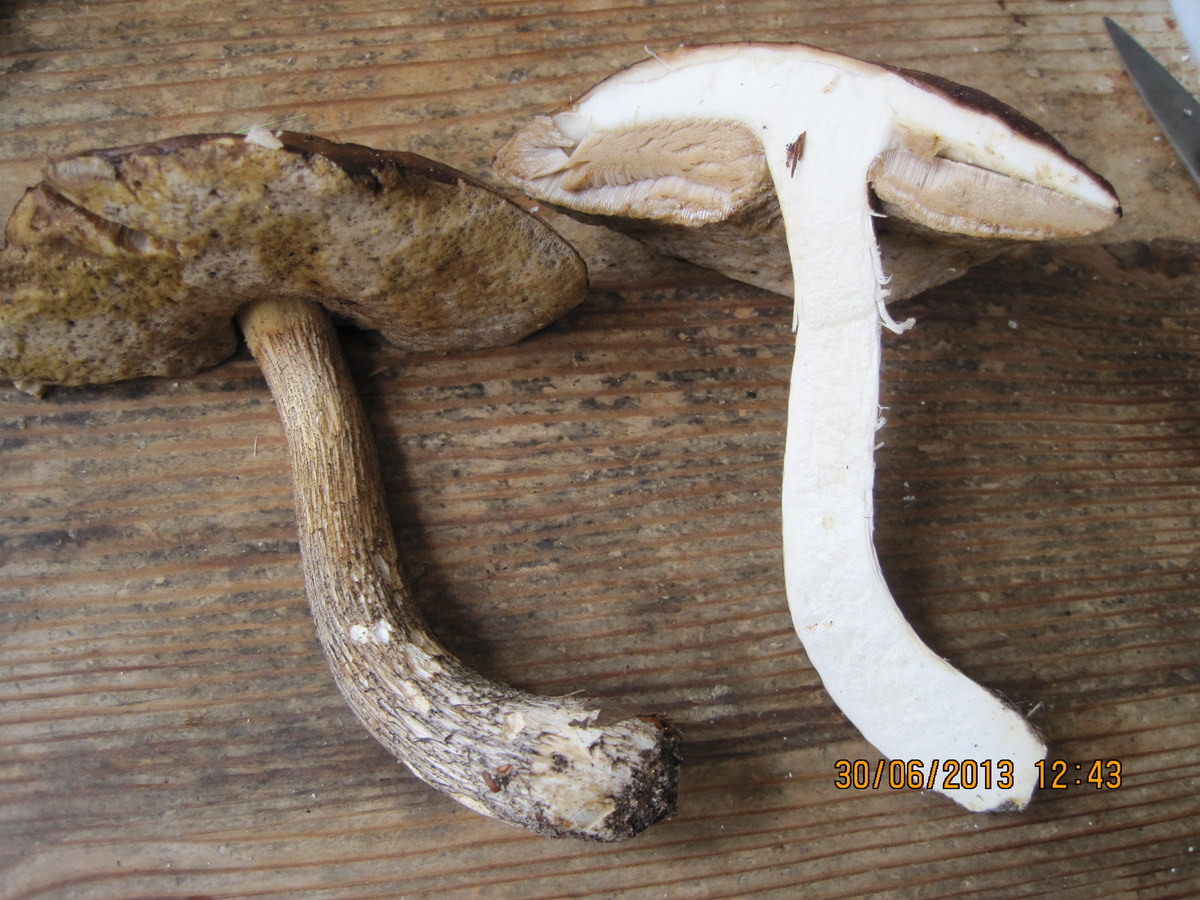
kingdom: Fungi
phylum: Basidiomycota
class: Agaricomycetes
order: Boletales
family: Boletaceae
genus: Leccinum
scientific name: Leccinum scabrum
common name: brun skælrørhat
